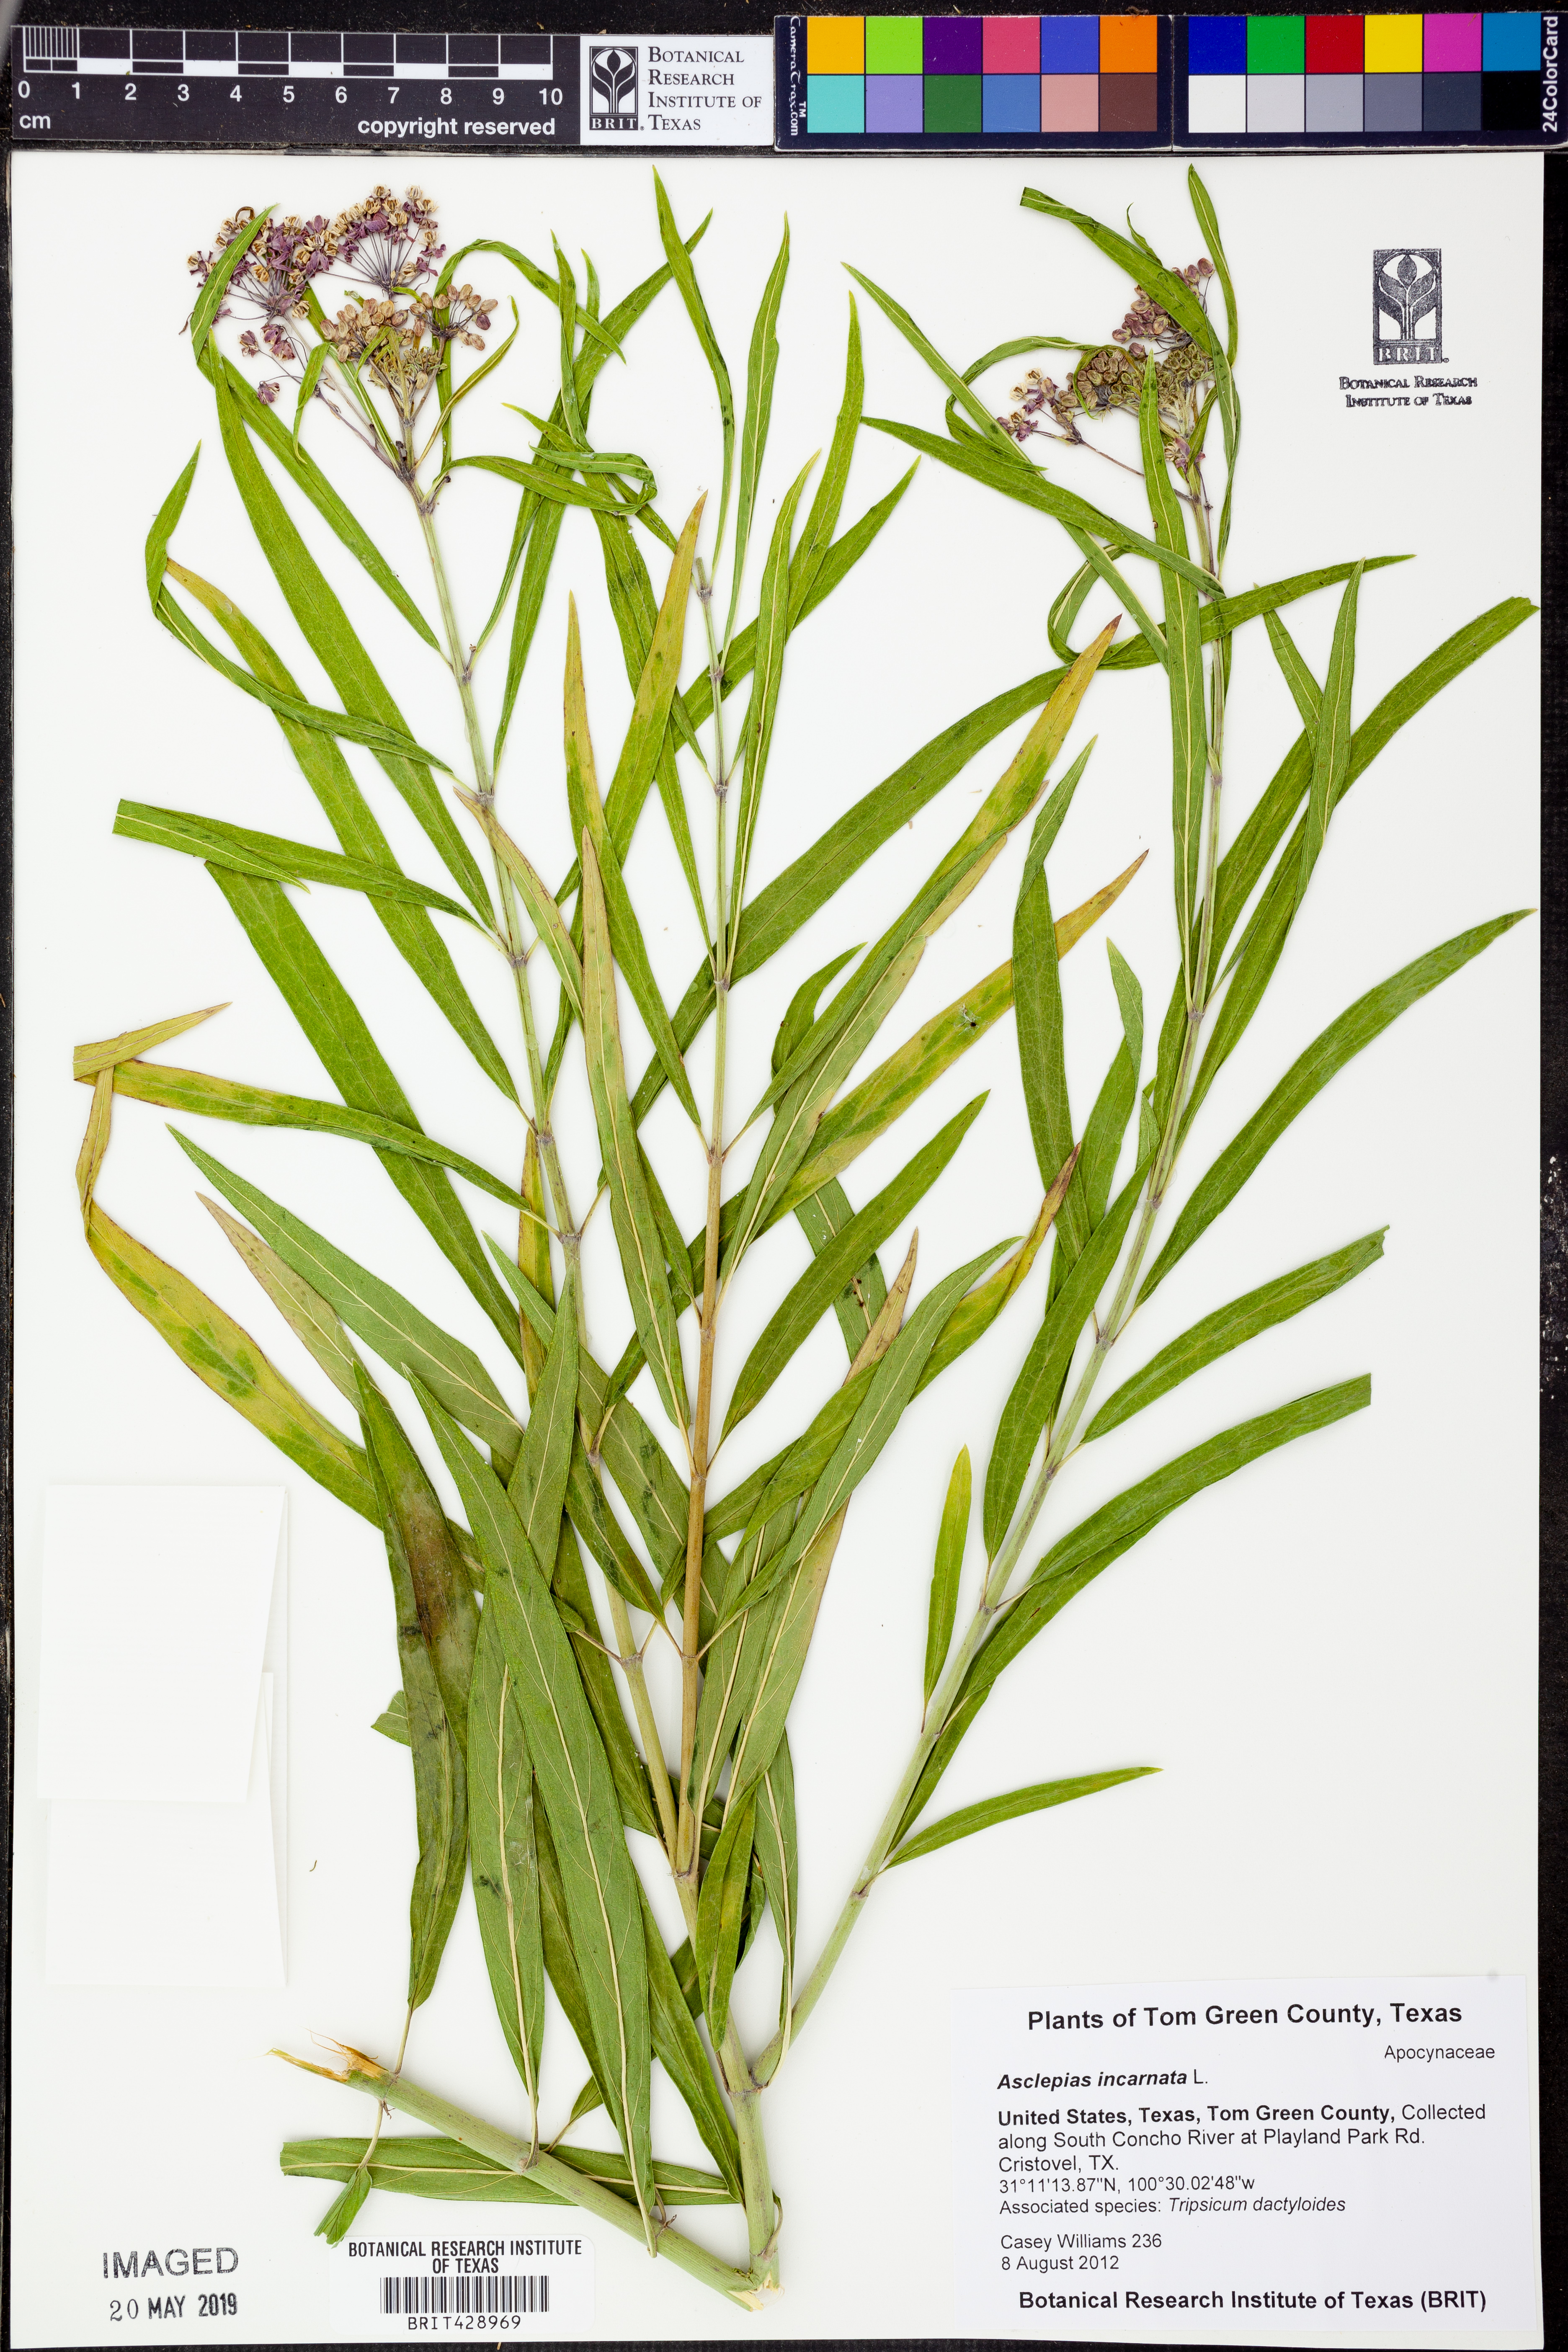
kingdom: Plantae
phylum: Tracheophyta
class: Magnoliopsida
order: Gentianales
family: Apocynaceae
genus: Asclepias
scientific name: Asclepias incarnata
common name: Swamp milkweed
